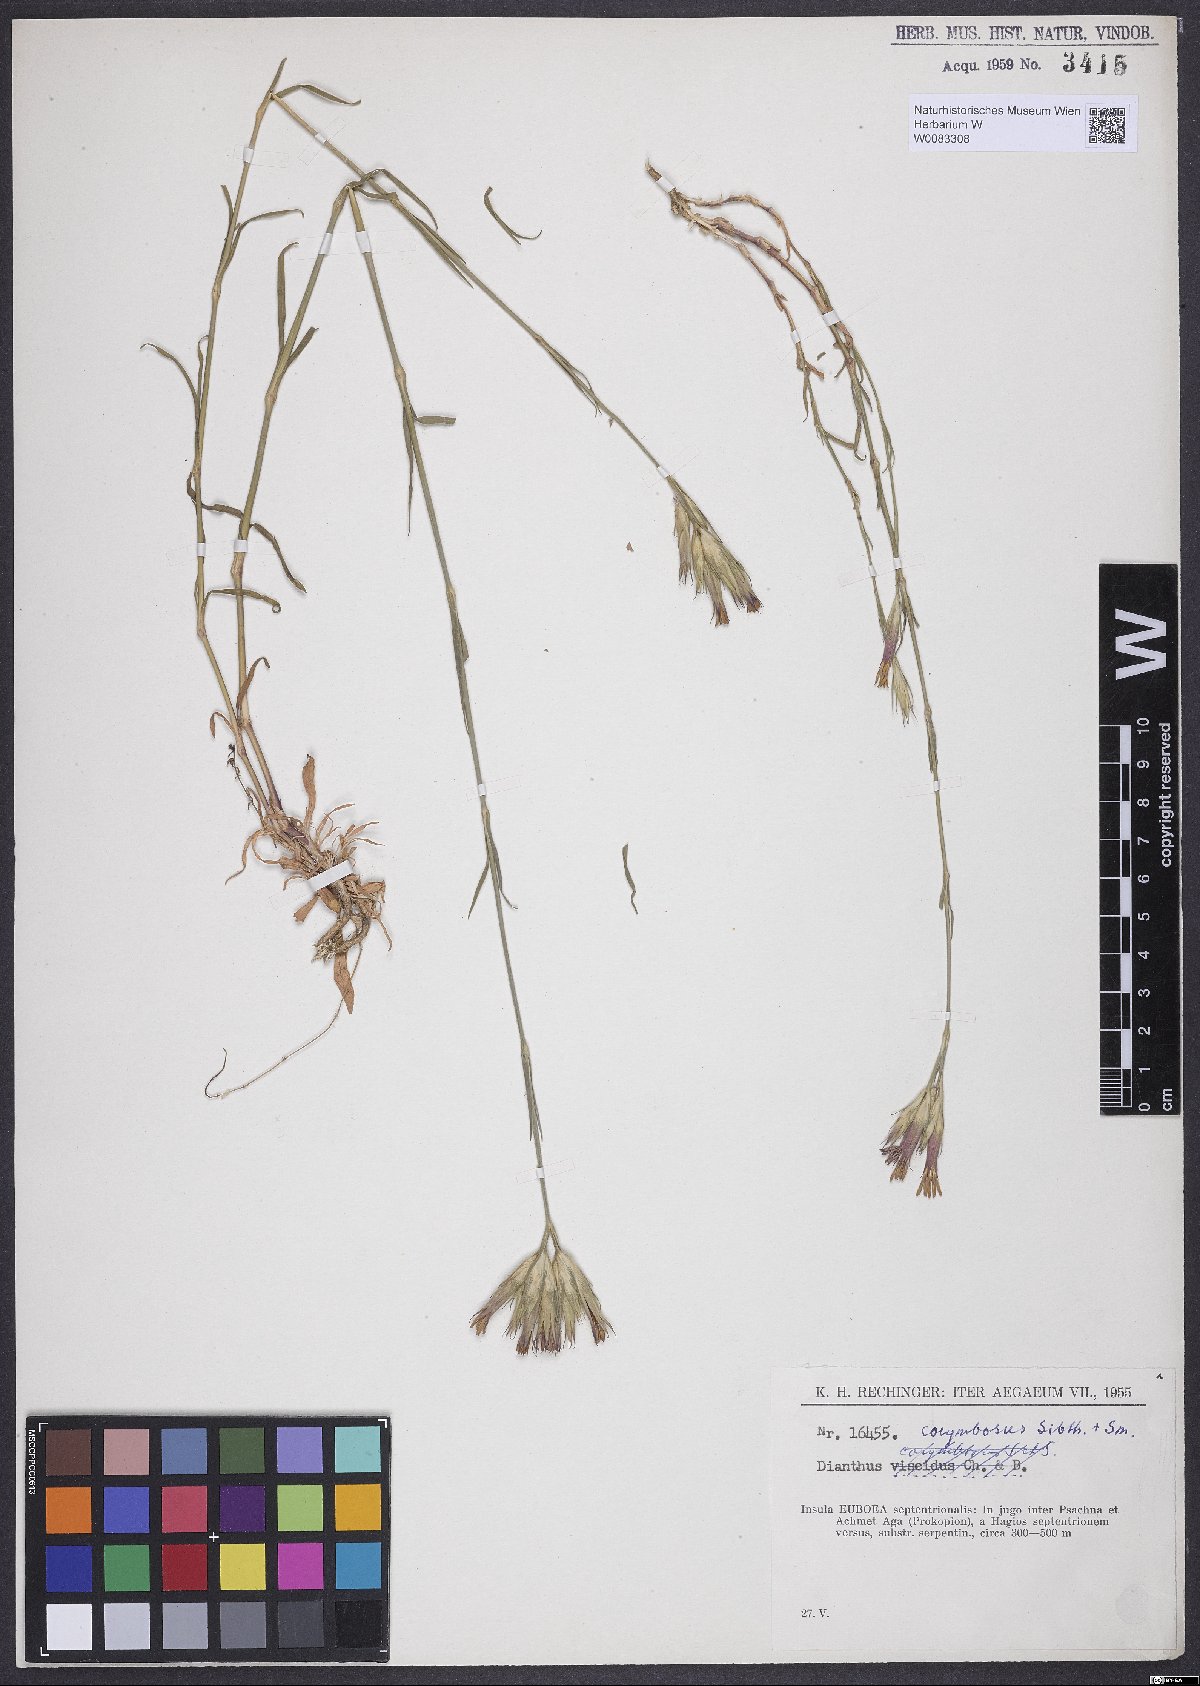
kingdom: Plantae
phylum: Tracheophyta
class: Magnoliopsida
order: Caryophyllales
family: Caryophyllaceae
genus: Dianthus
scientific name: Dianthus corymbosus
